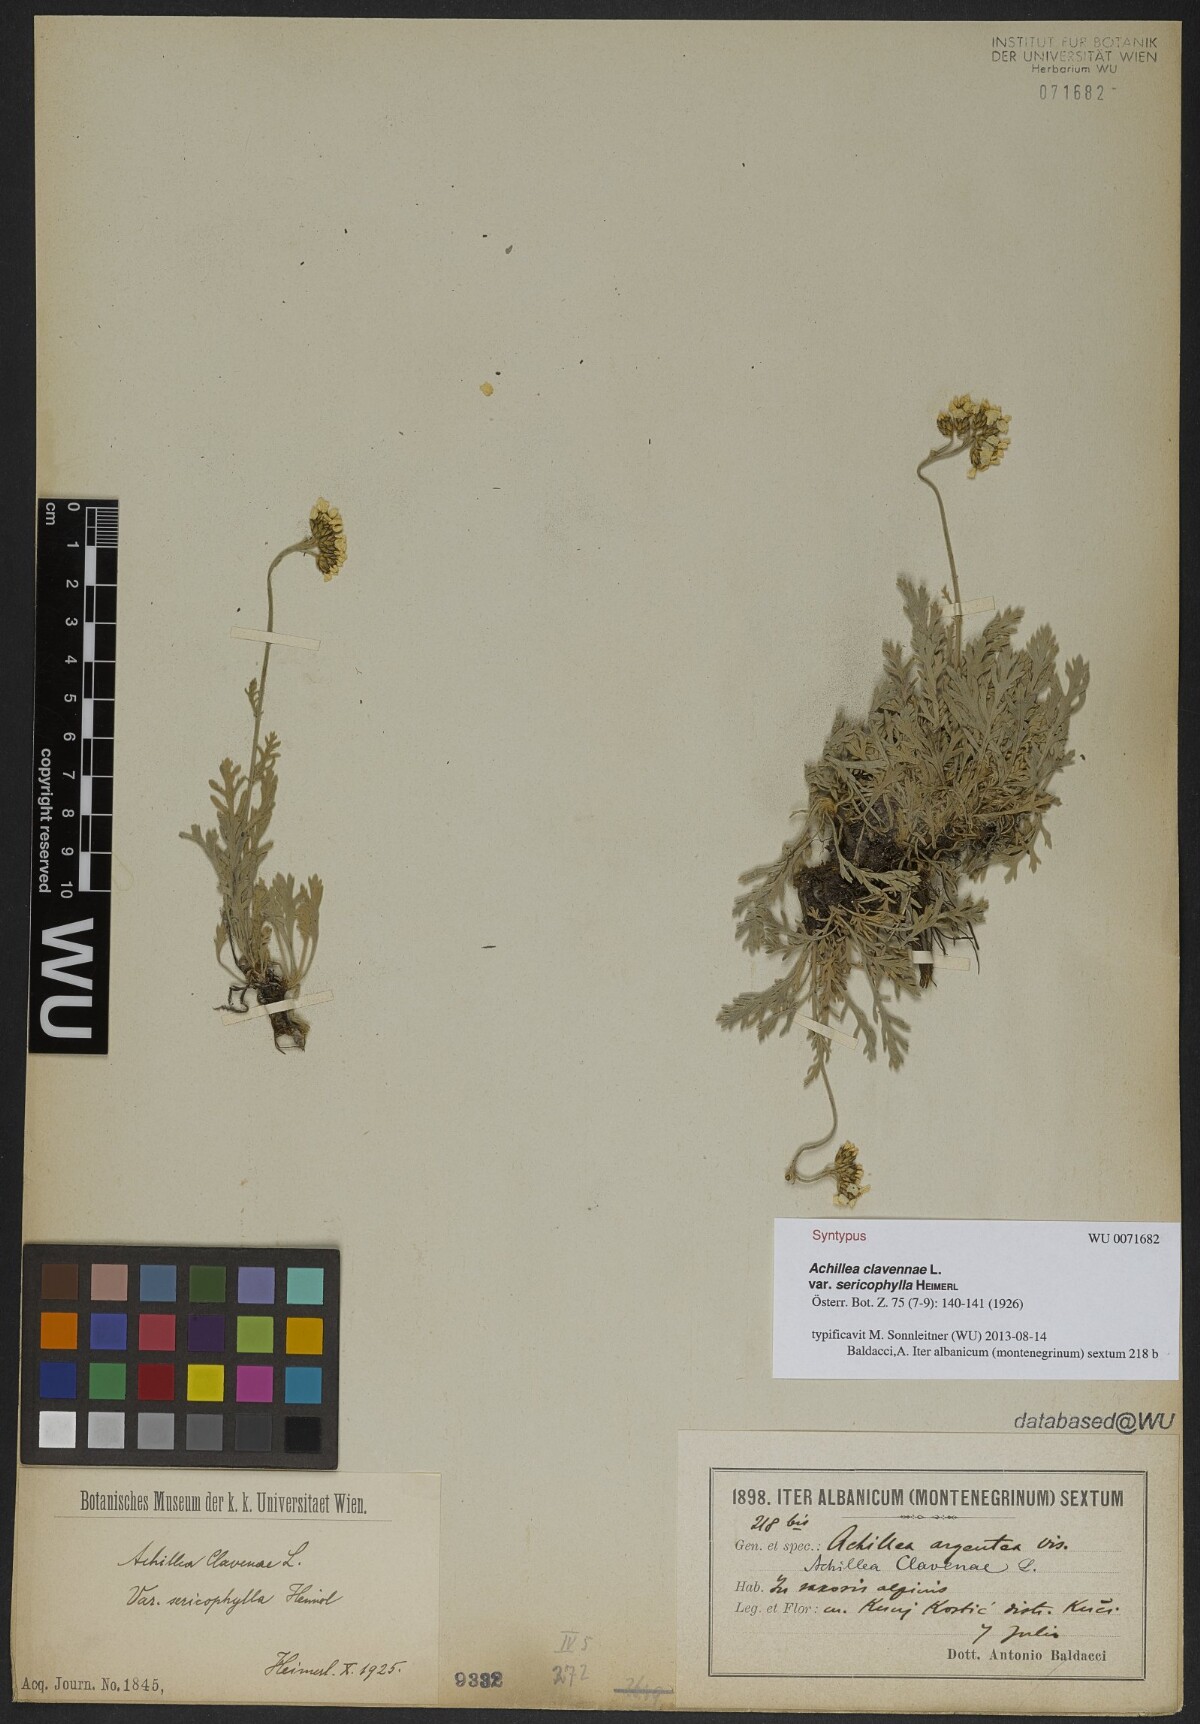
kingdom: Plantae
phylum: Tracheophyta
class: Magnoliopsida
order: Asterales
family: Asteraceae
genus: Achillea
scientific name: Achillea clavennae
